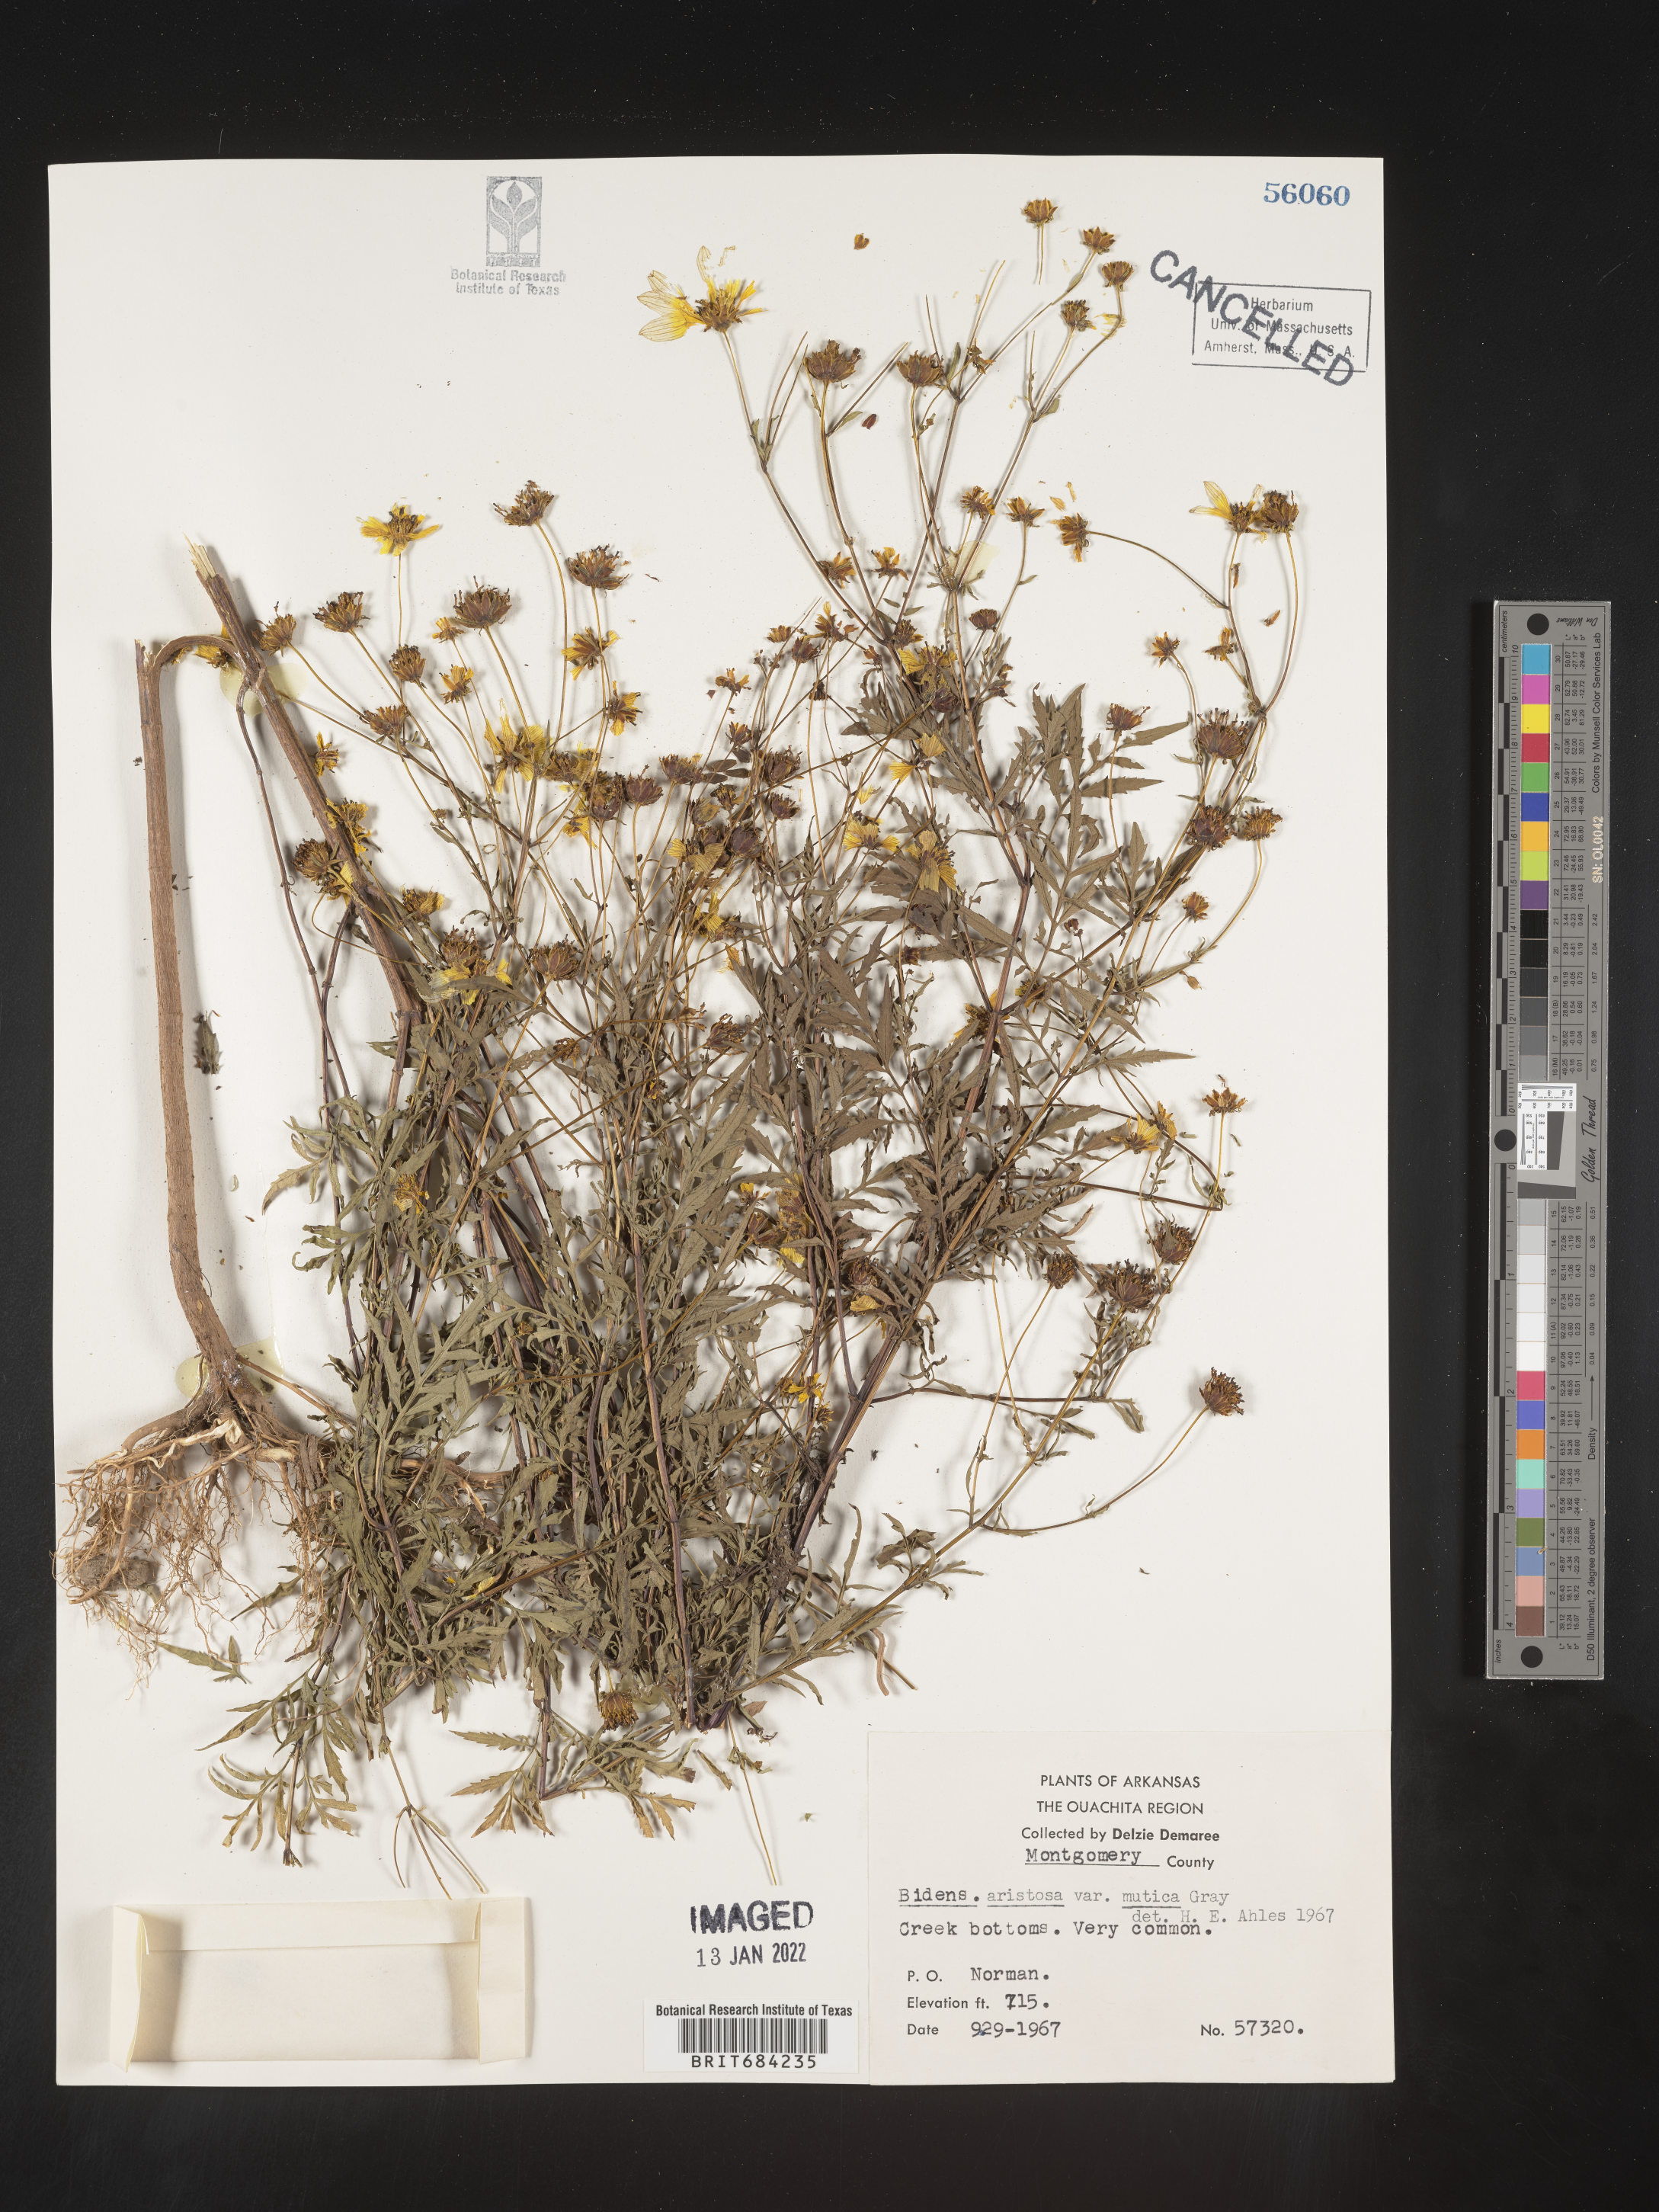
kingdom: Plantae
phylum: Tracheophyta
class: Magnoliopsida
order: Asterales
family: Asteraceae
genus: Bidens
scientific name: Bidens aristosa
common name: Western tickseed
